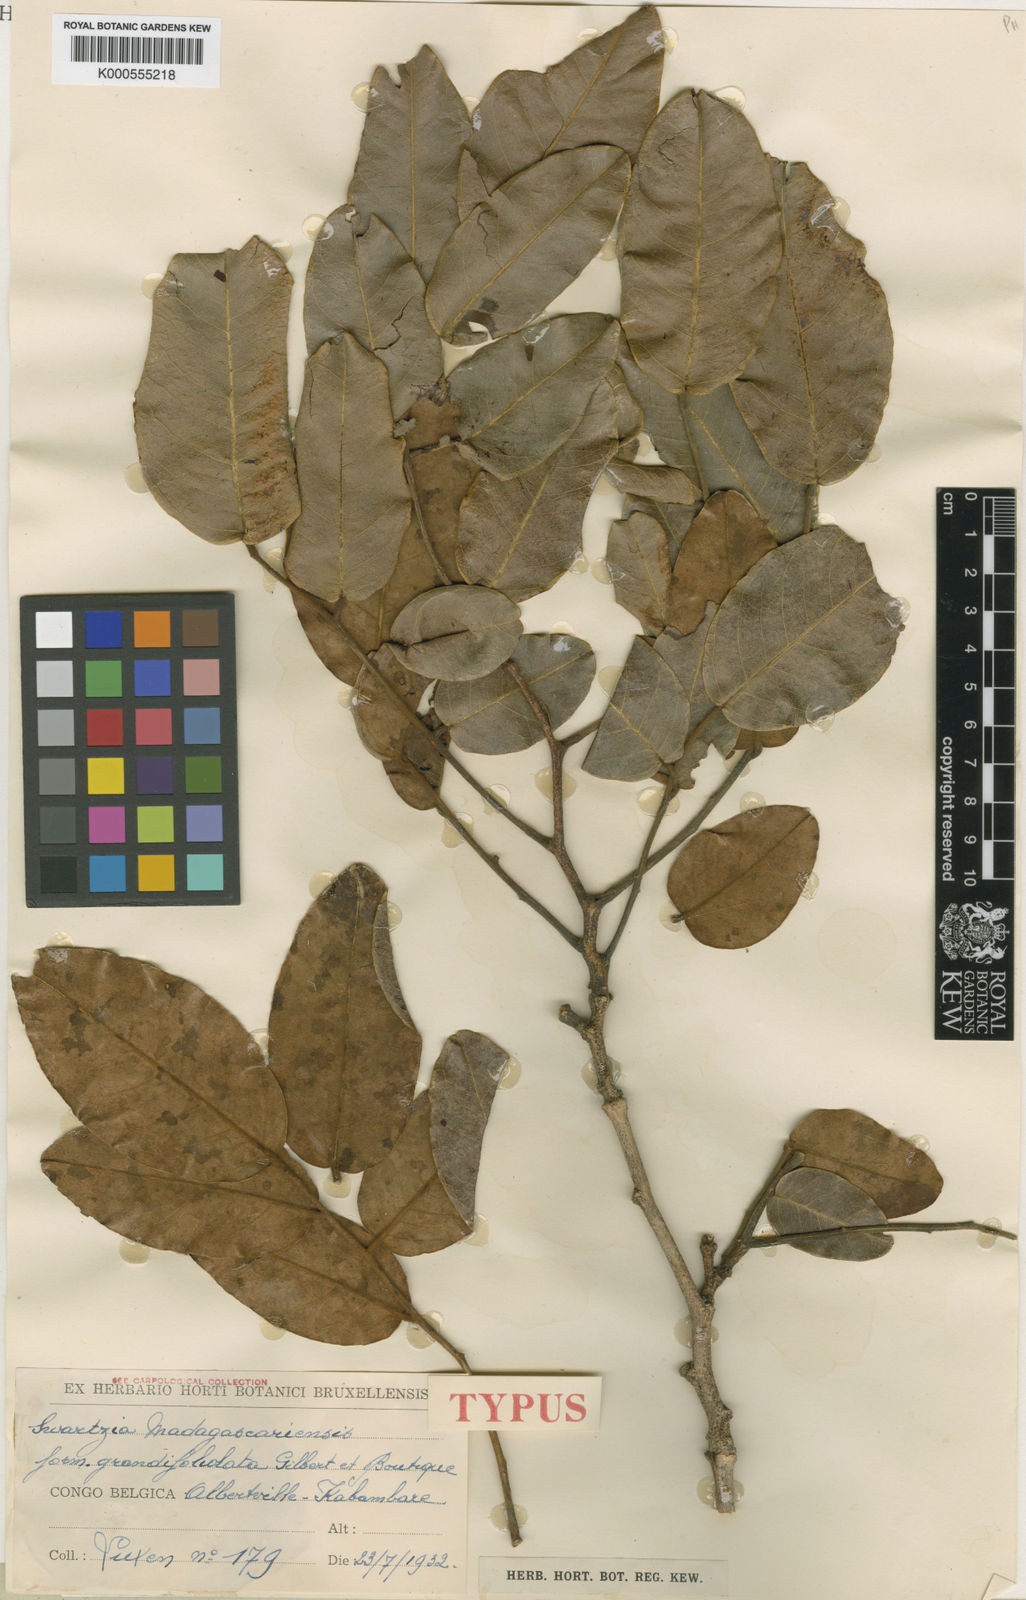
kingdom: Plantae
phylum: Tracheophyta
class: Magnoliopsida
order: Fabales
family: Fabaceae
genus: Bobgunnia
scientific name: Bobgunnia madagascariensis
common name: Snake bean plant
